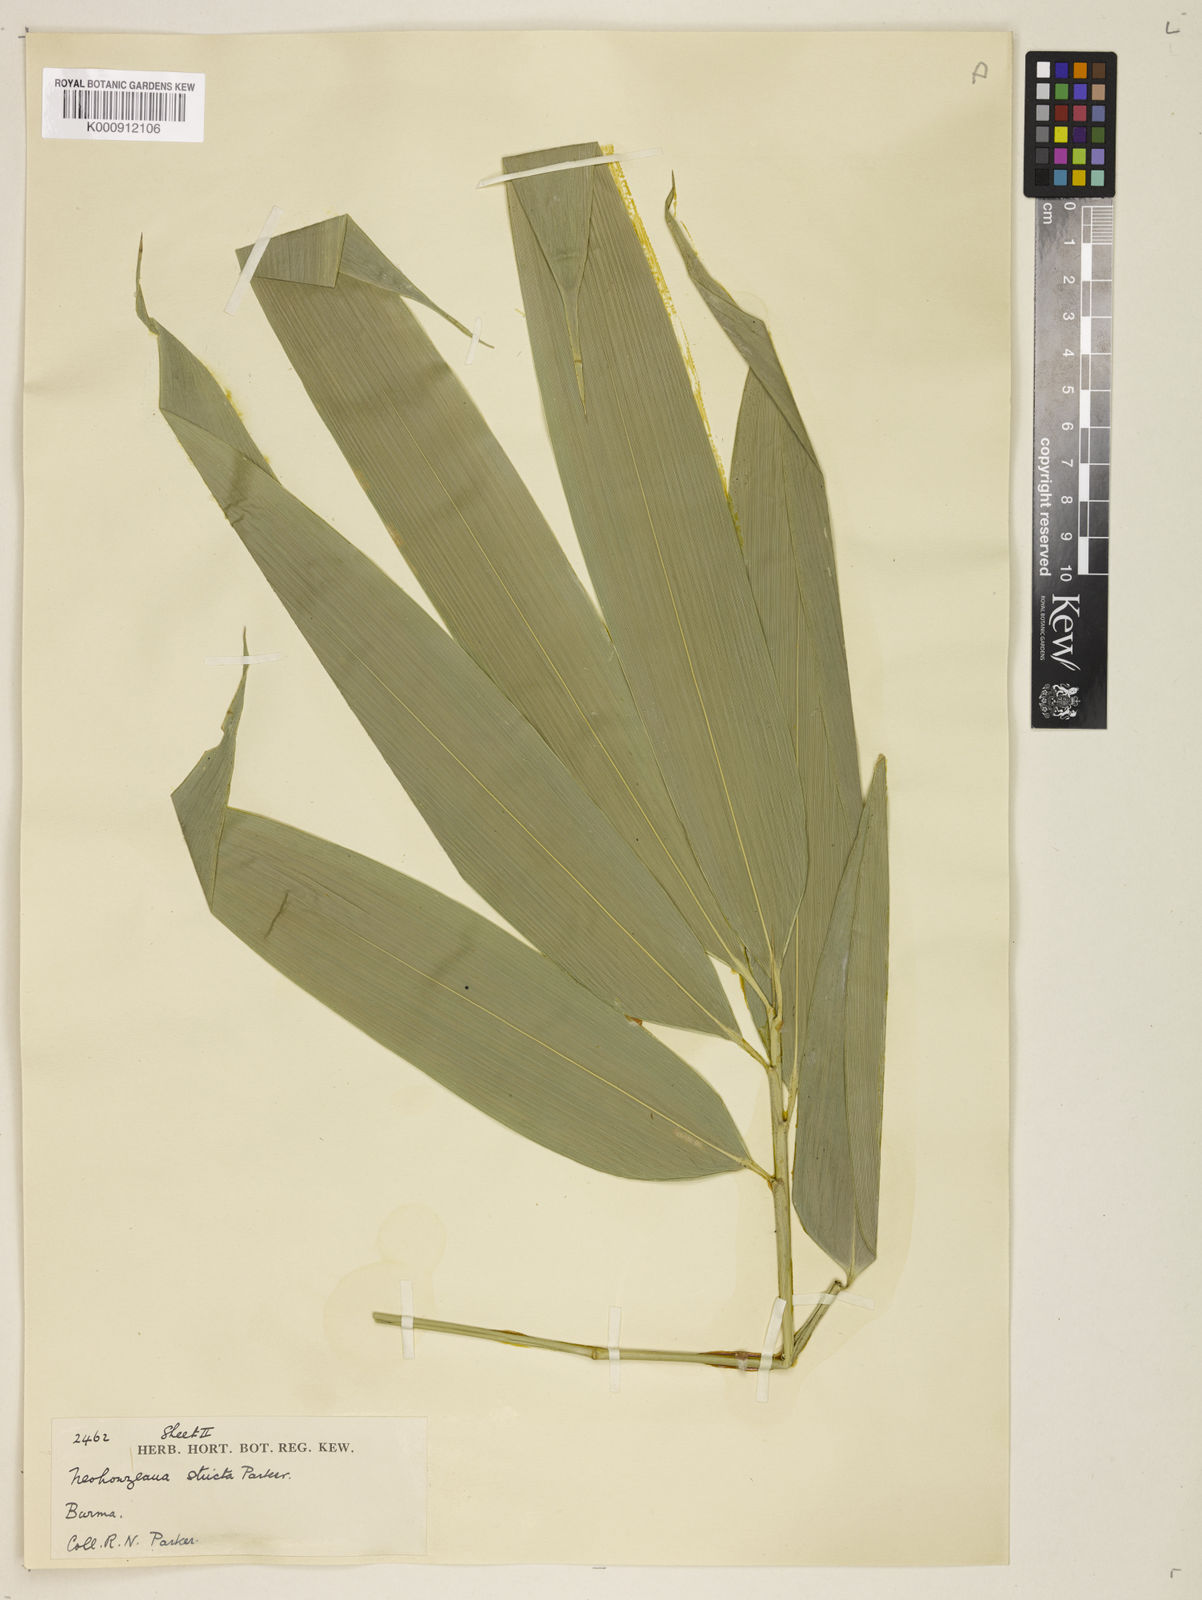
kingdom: Plantae
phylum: Tracheophyta
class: Liliopsida
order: Poales
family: Poaceae
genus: Schizostachyum
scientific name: Schizostachyum strictum
